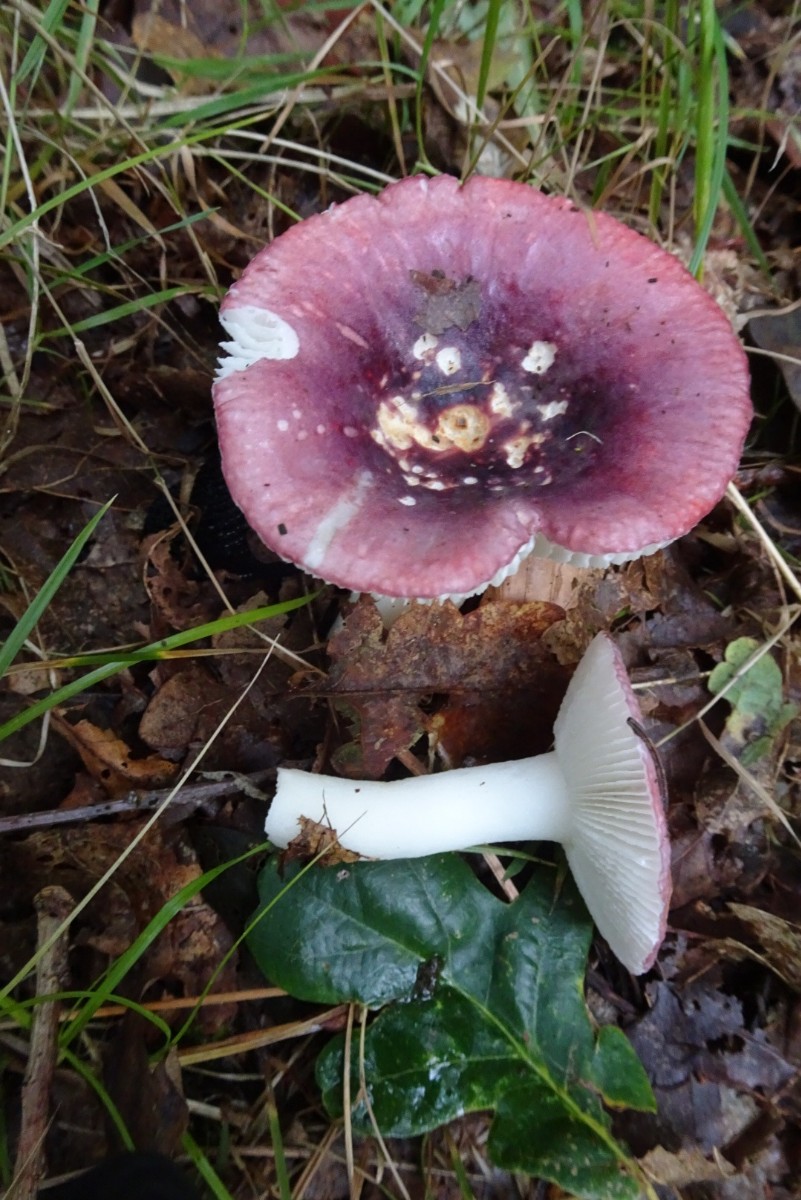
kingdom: Fungi
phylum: Basidiomycota
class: Agaricomycetes
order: Russulales
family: Russulaceae
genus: Russula
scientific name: Russula fragilis
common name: savbladet skørhat
